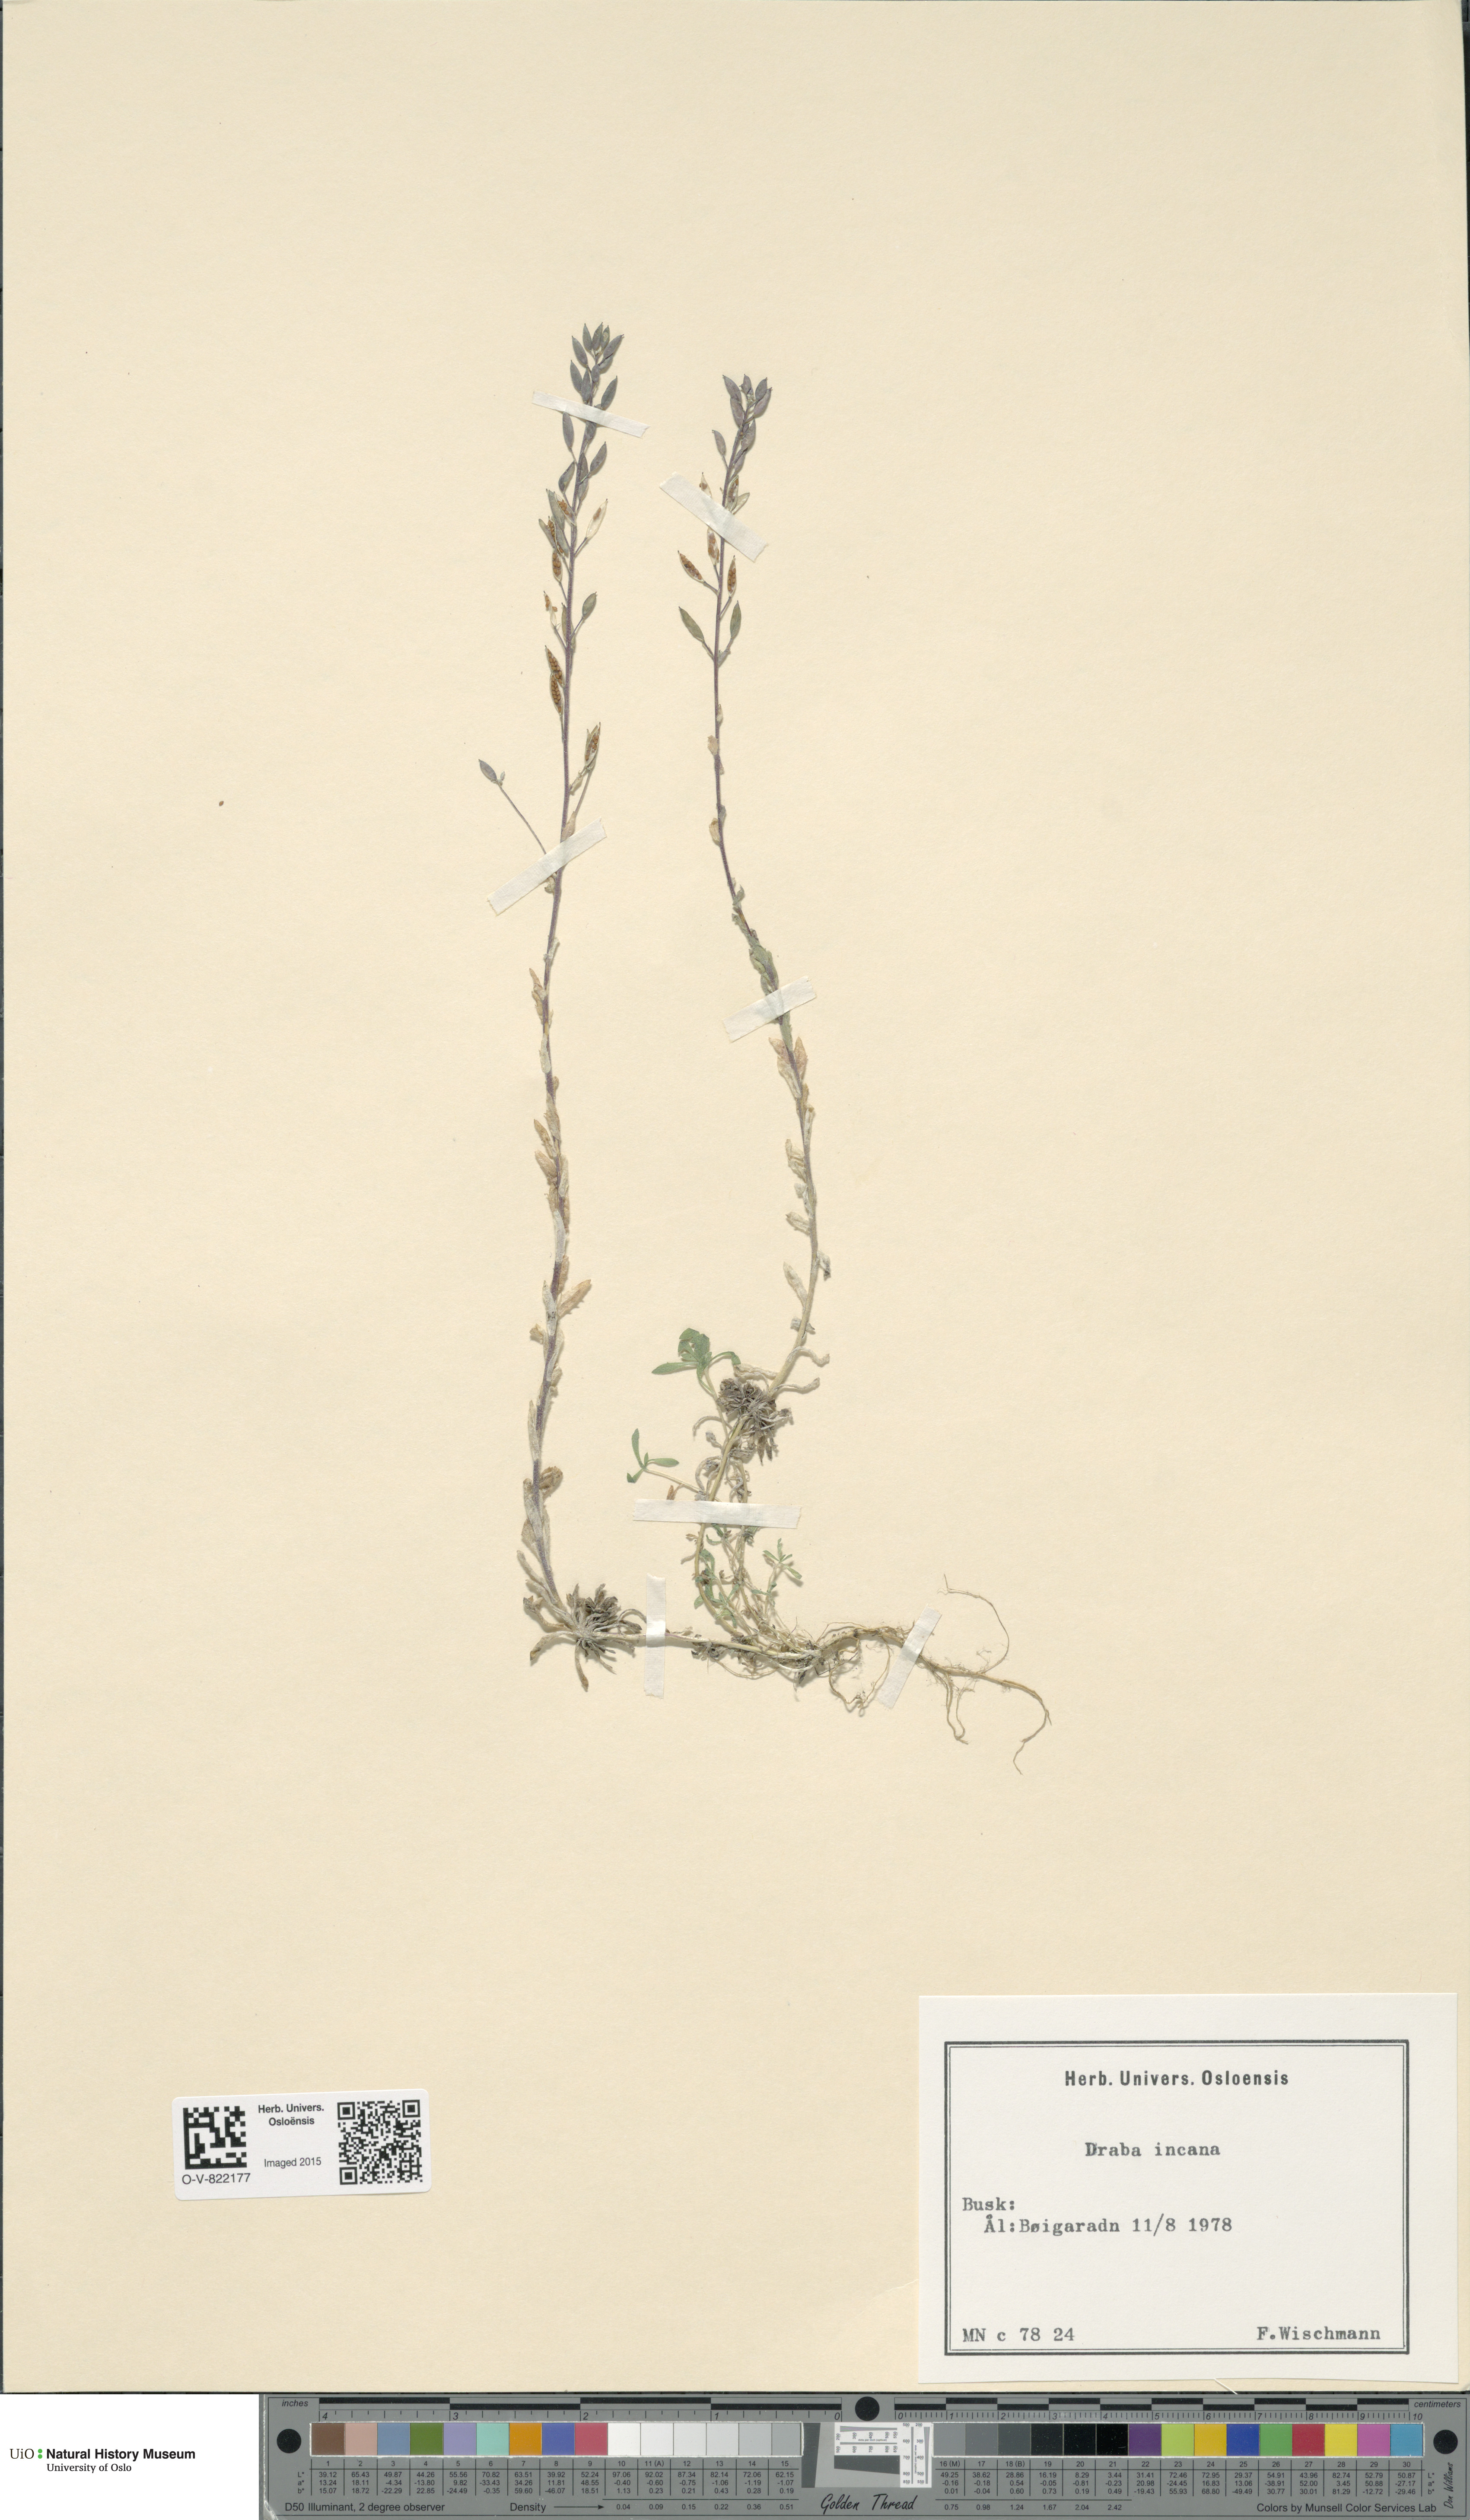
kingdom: Plantae
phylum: Tracheophyta
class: Magnoliopsida
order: Brassicales
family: Brassicaceae
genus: Draba
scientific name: Draba incana
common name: Hoary whitlow-grass
